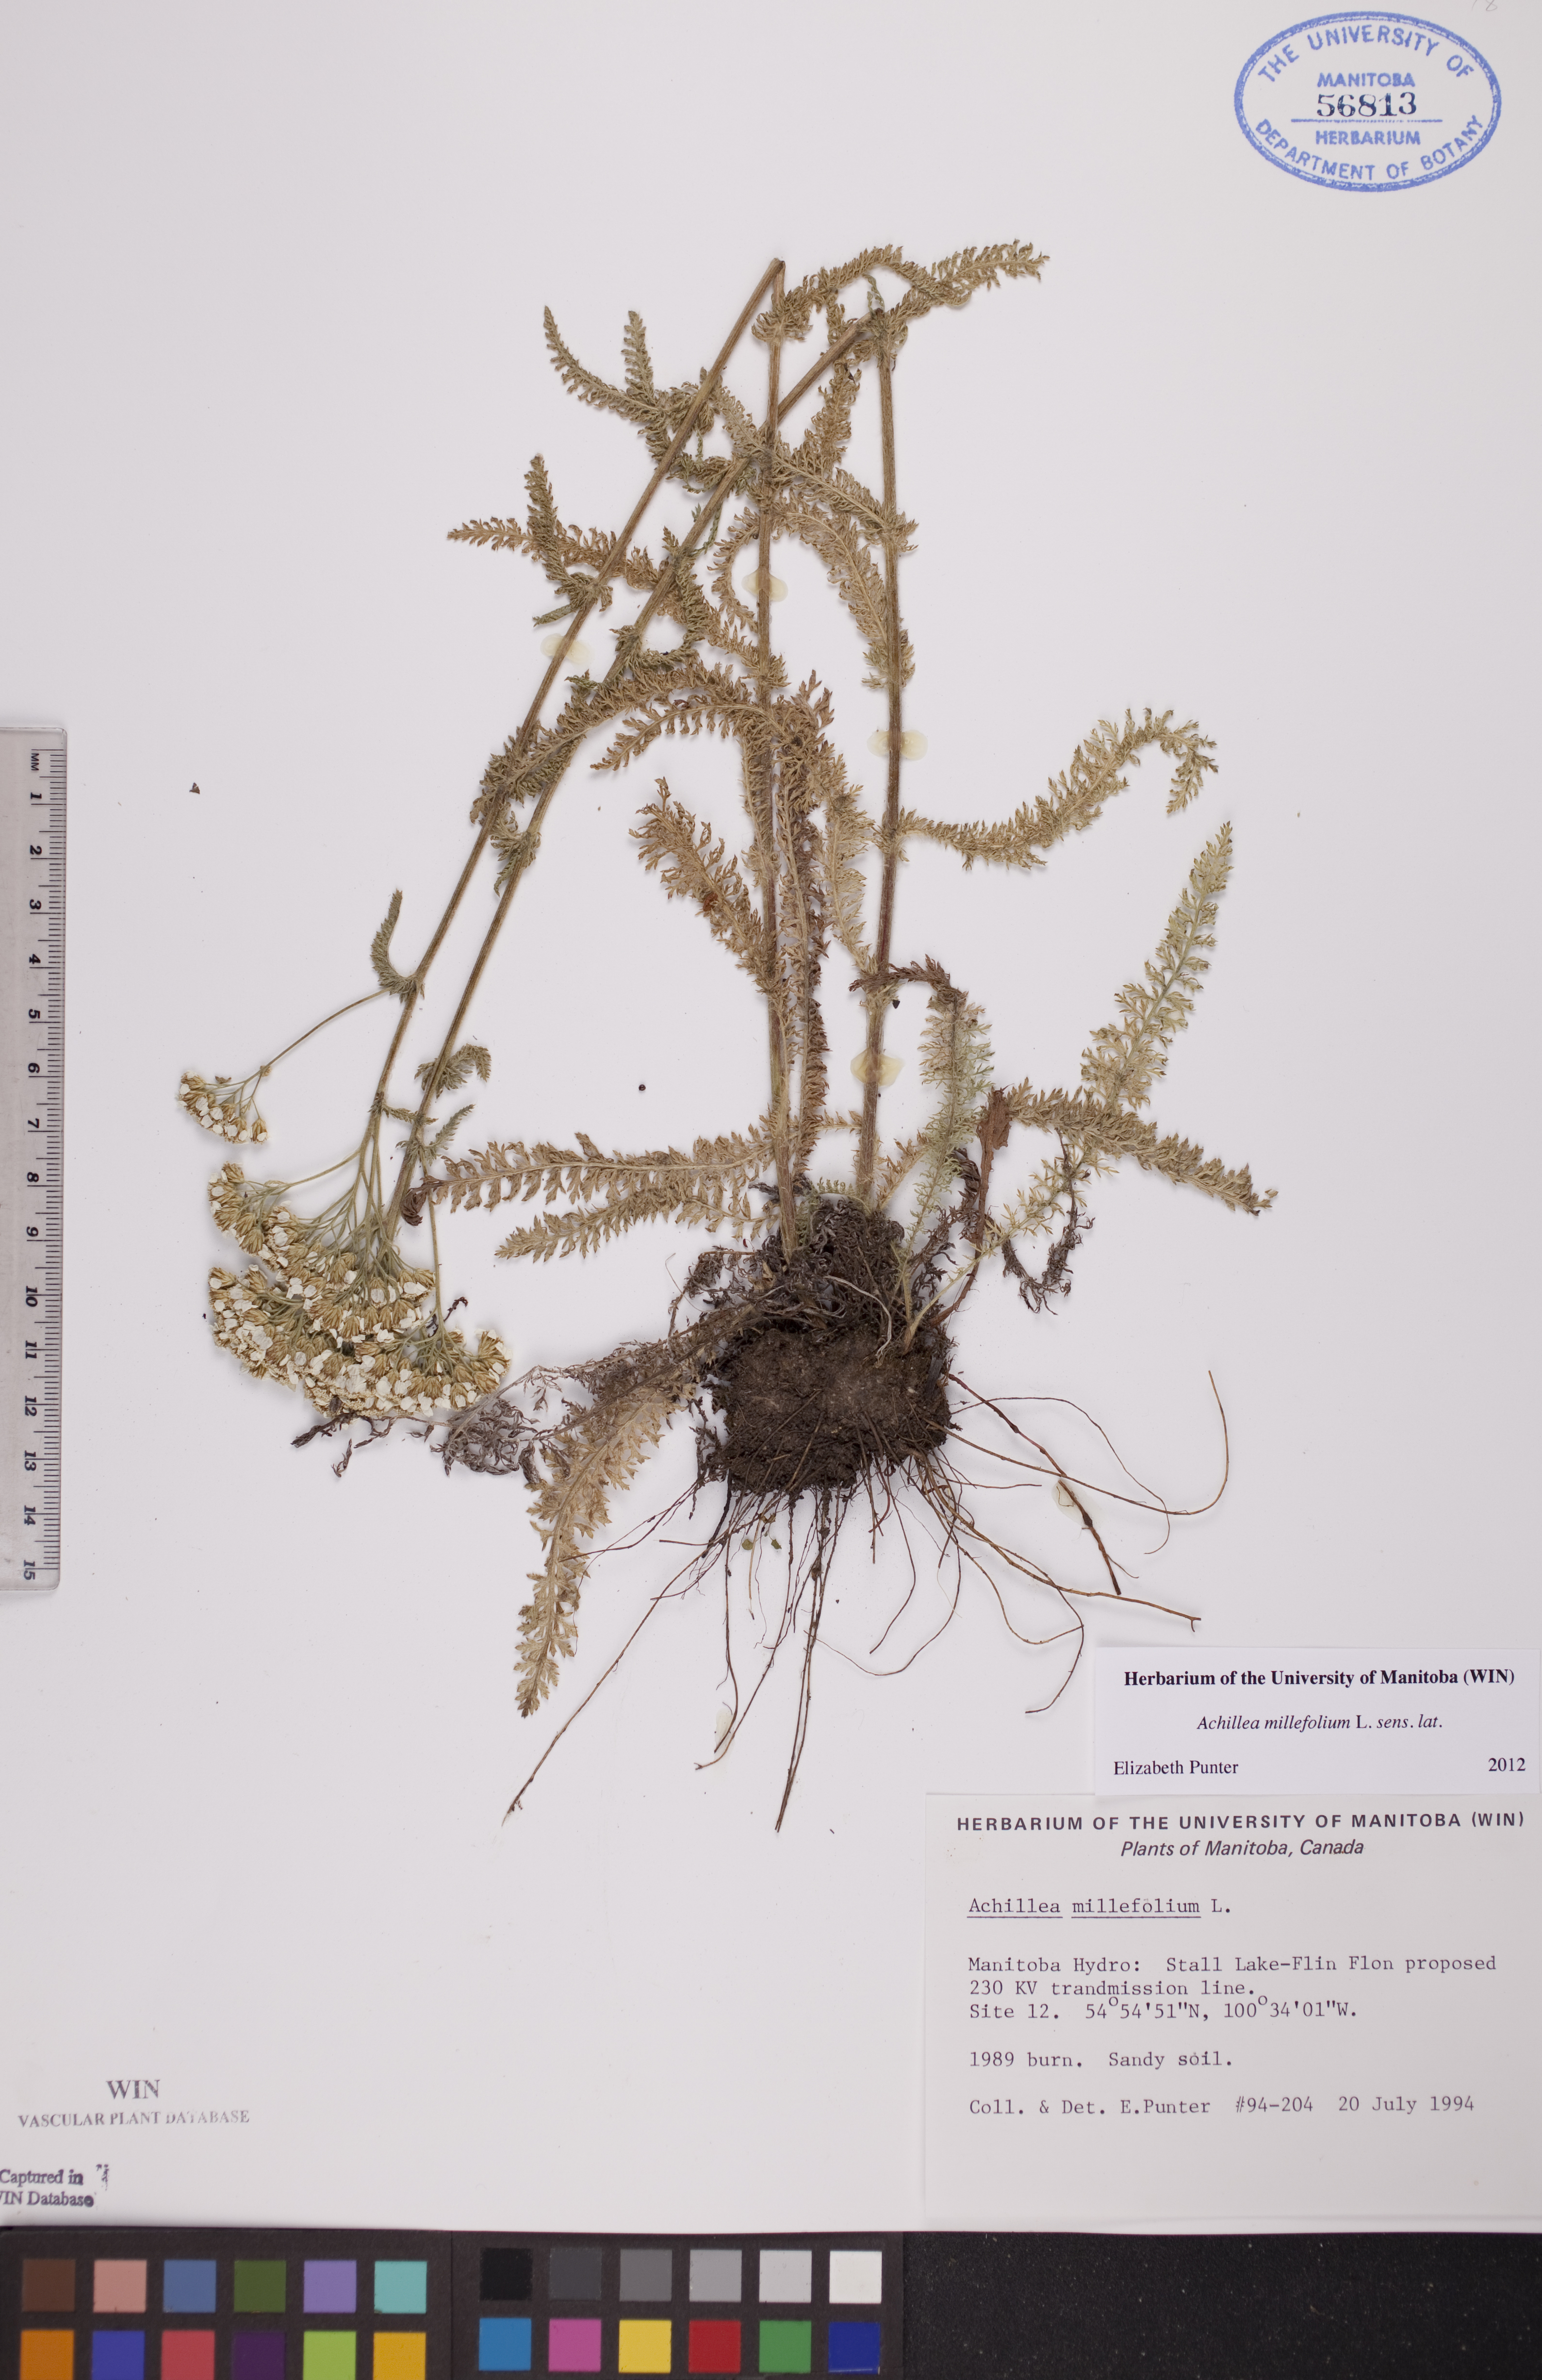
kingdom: Plantae
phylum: Tracheophyta
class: Magnoliopsida
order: Asterales
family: Asteraceae
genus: Achillea
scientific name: Achillea millefolium
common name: Yarrow
